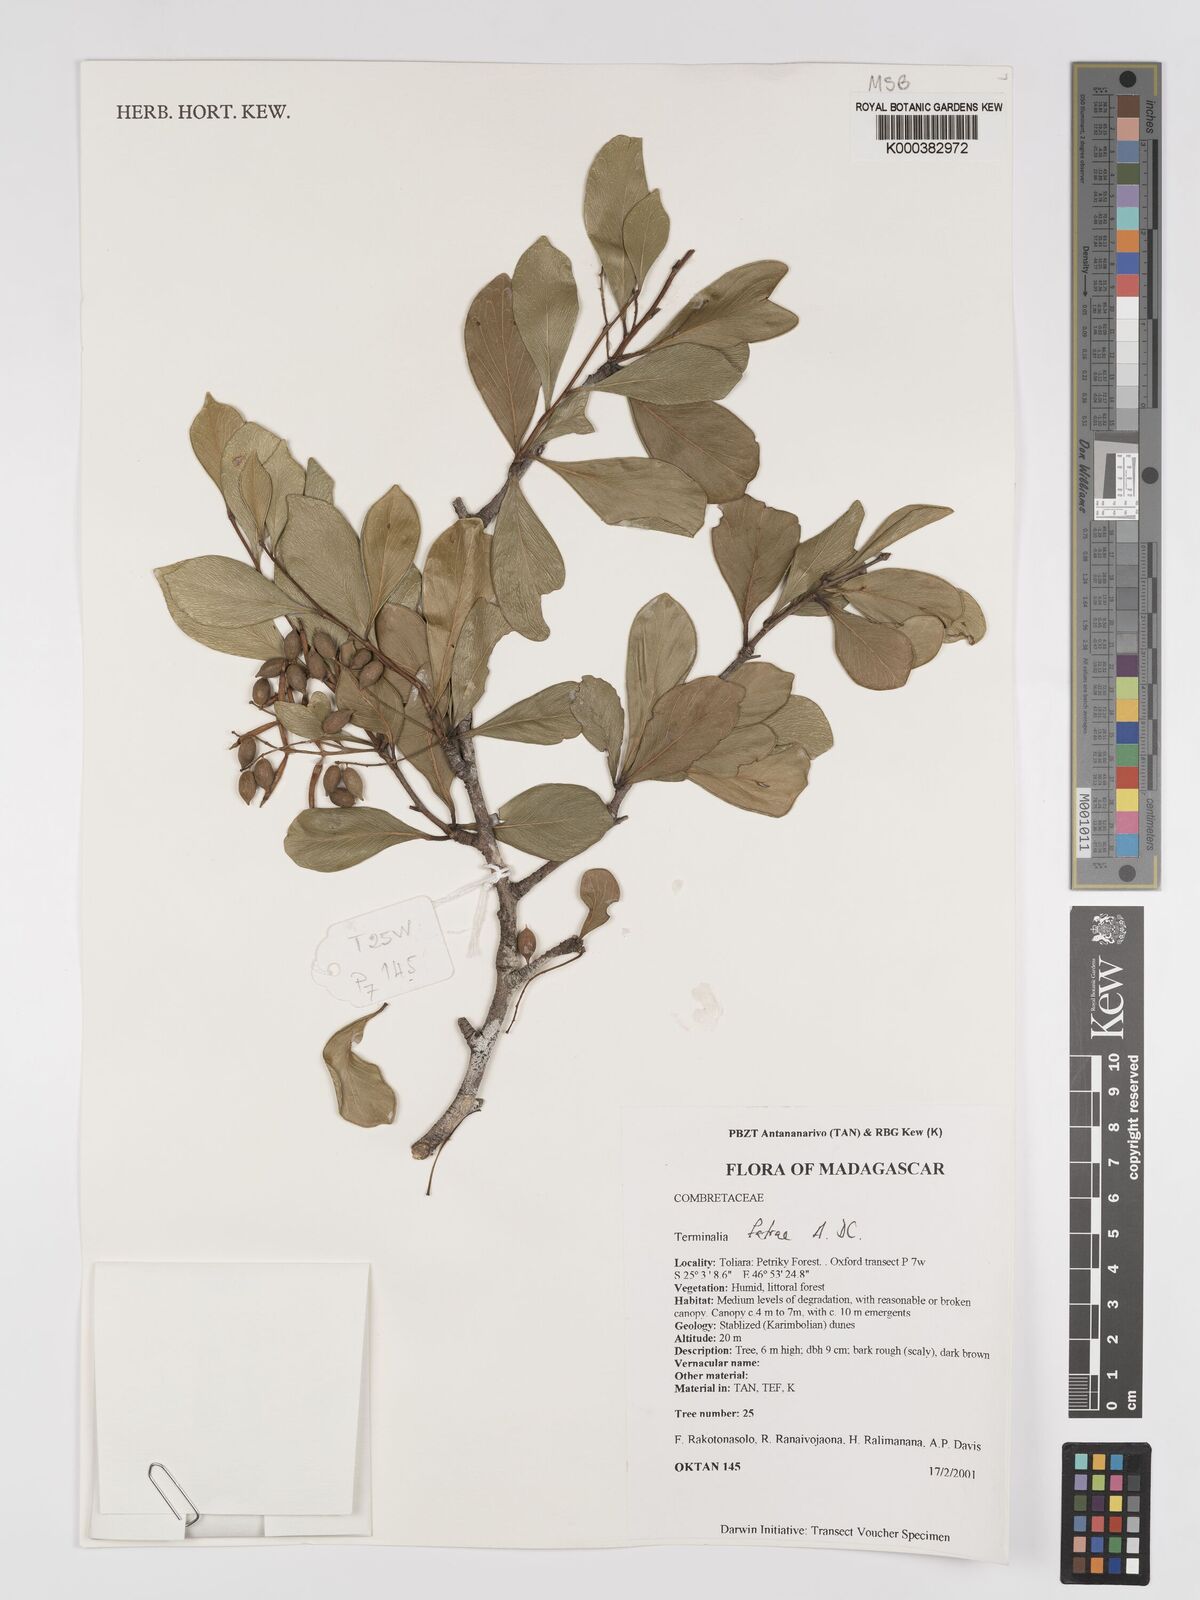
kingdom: Plantae
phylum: Tracheophyta
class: Magnoliopsida
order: Myrtales
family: Combretaceae
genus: Terminalia
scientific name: Terminalia fatraea
